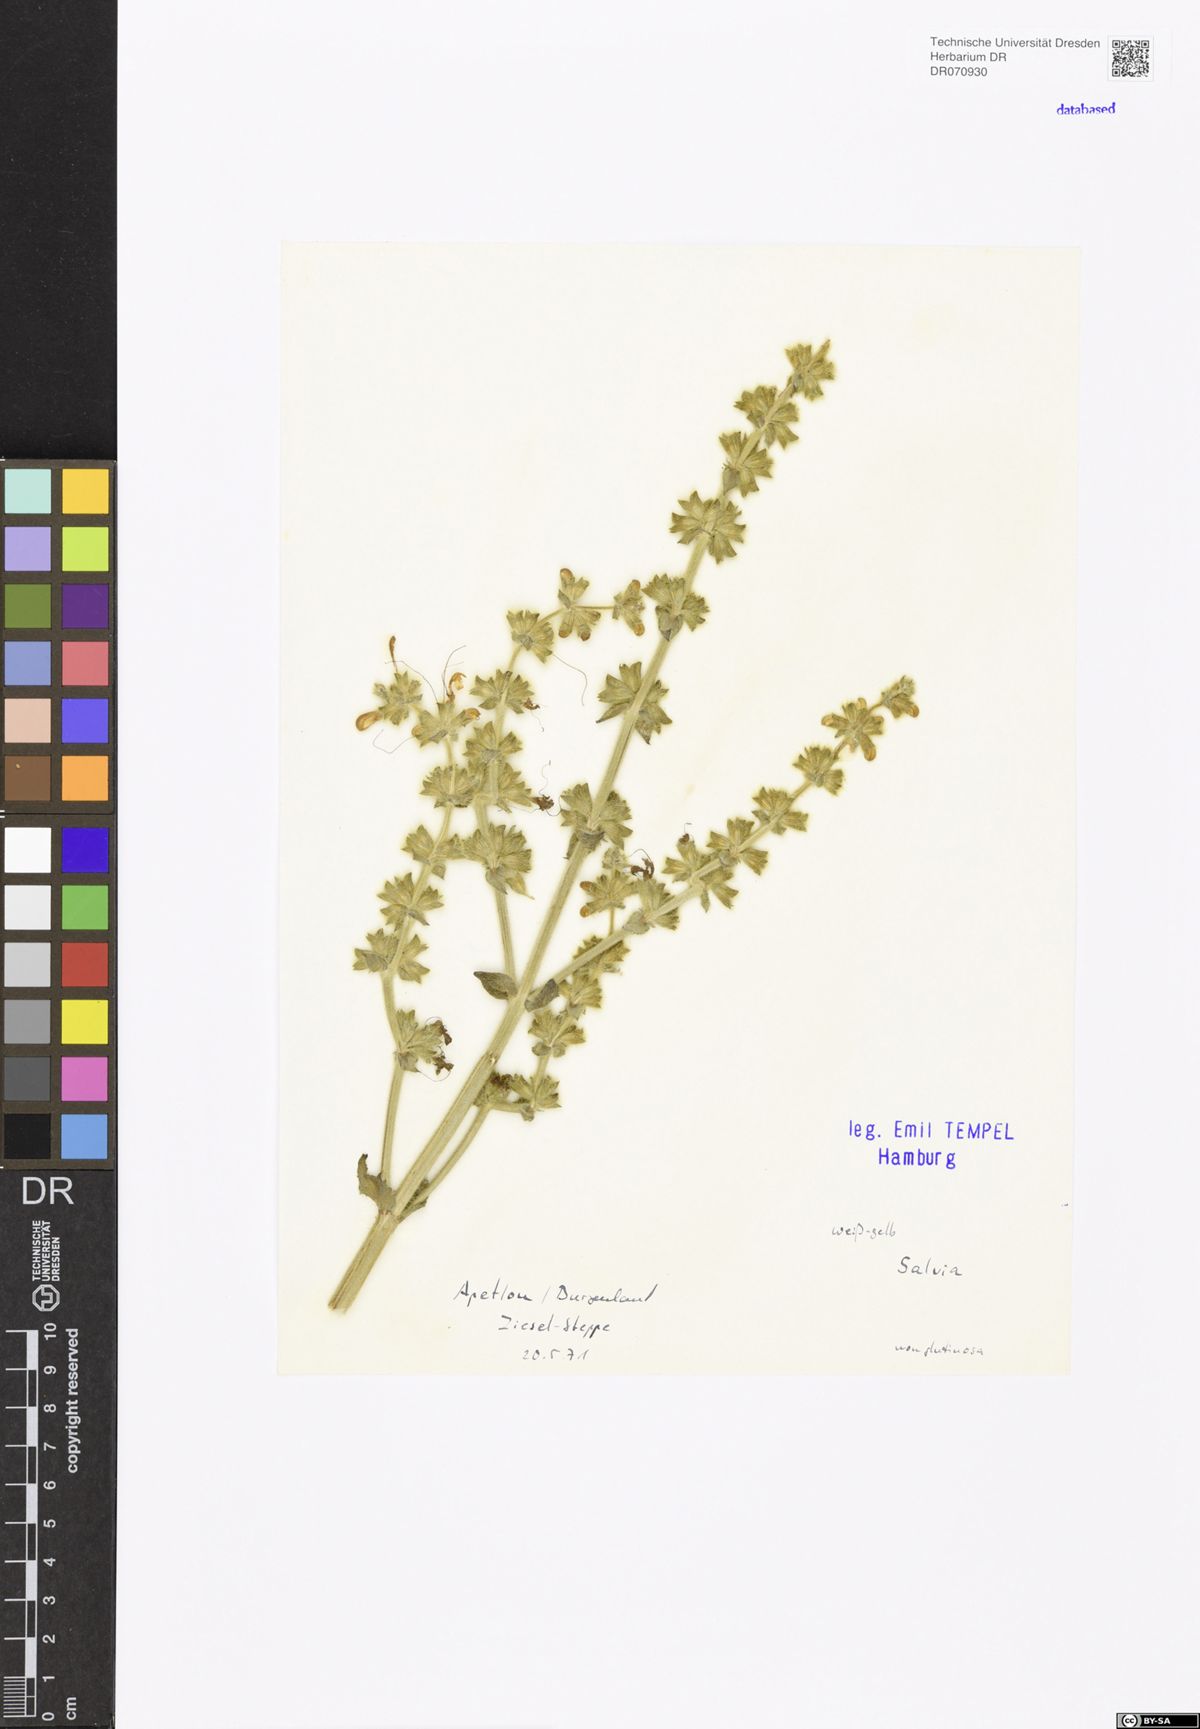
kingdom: Plantae
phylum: Tracheophyta
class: Magnoliopsida
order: Lamiales
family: Lamiaceae
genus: Salvia
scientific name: Salvia
